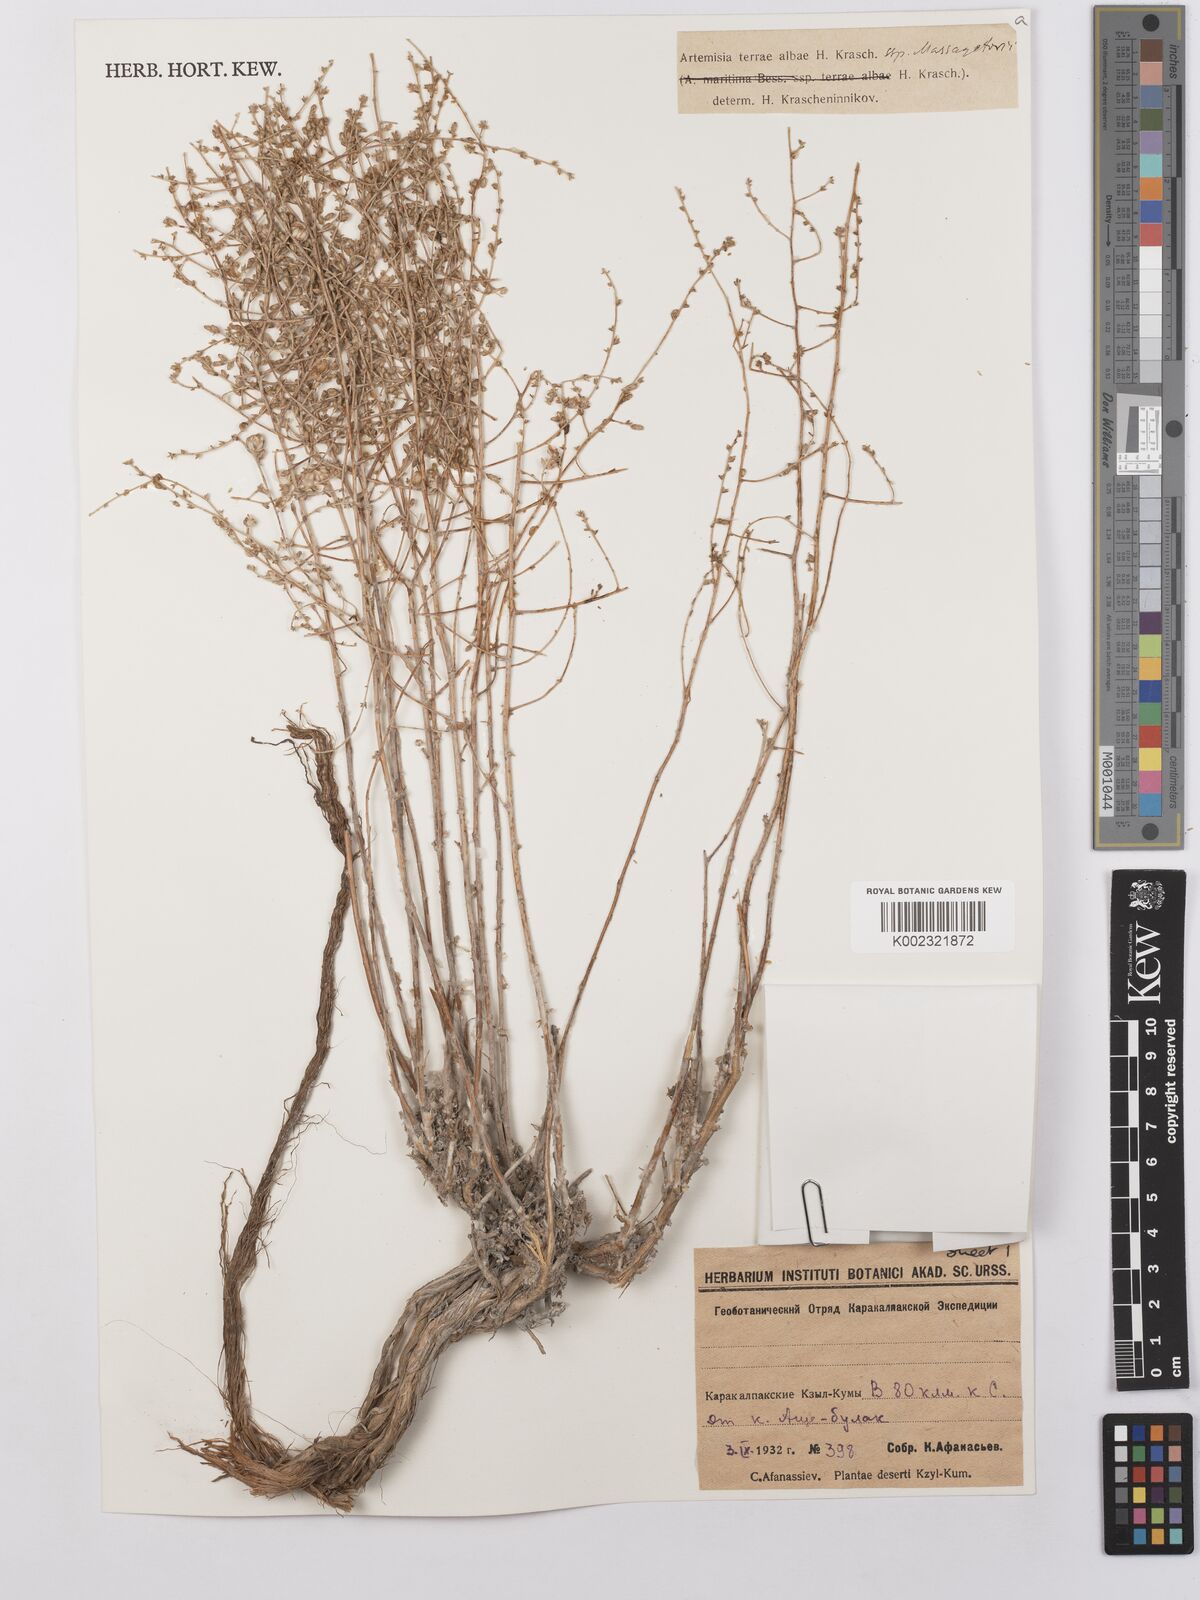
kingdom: Plantae
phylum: Tracheophyta
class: Magnoliopsida
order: Asterales
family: Asteraceae
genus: Artemisia
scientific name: Artemisia terrae-albae
